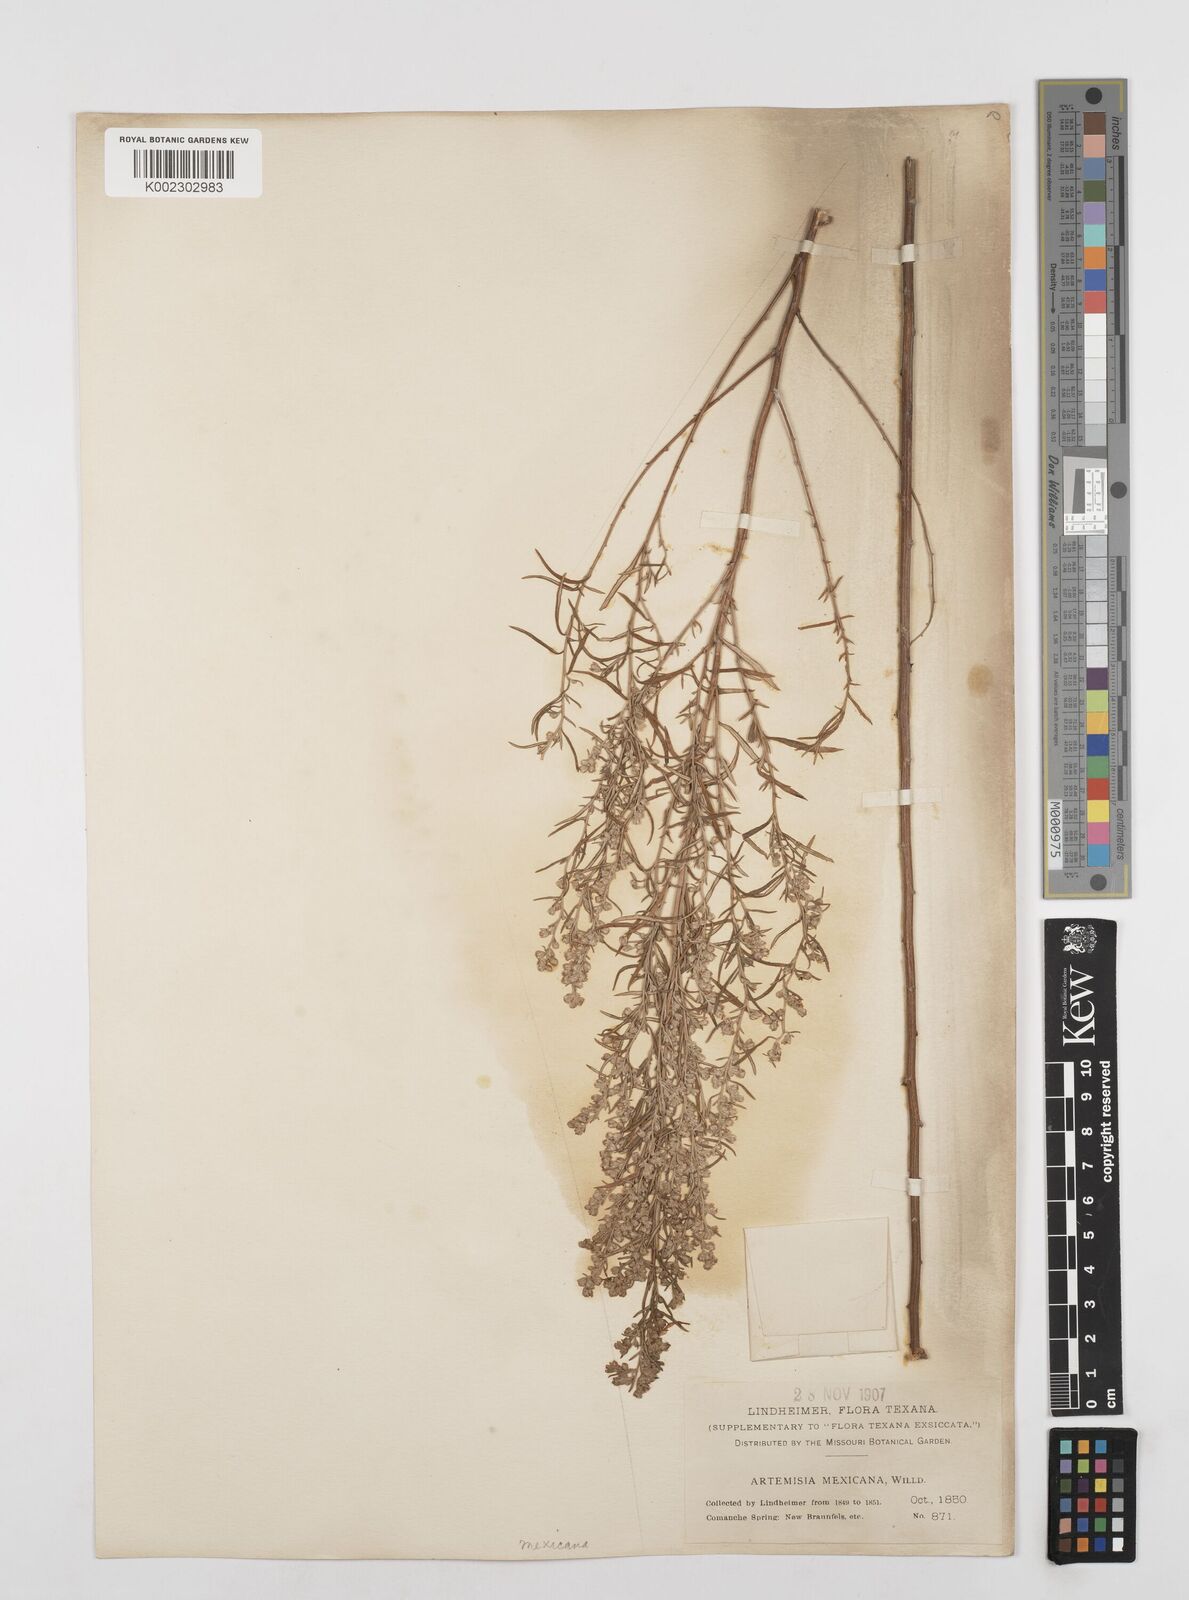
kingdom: Plantae
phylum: Tracheophyta
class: Magnoliopsida
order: Asterales
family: Asteraceae
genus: Artemisia
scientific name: Artemisia ludoviciana
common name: Western mugwort
